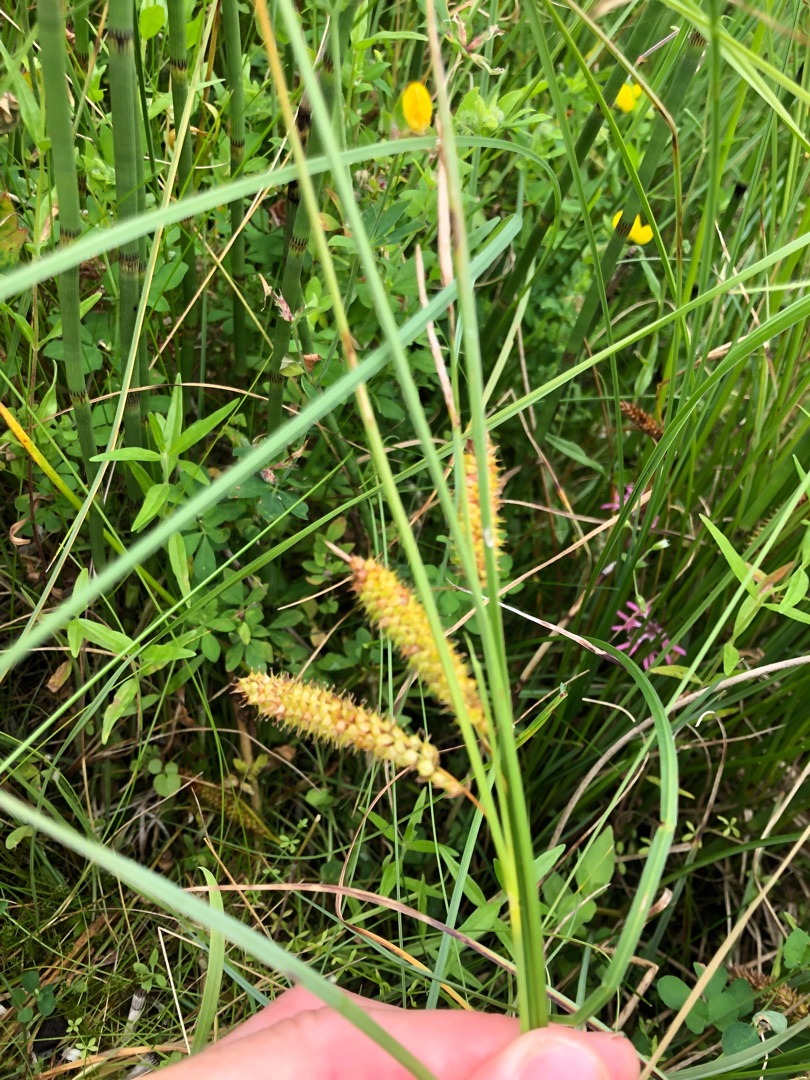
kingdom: Plantae
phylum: Tracheophyta
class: Liliopsida
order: Poales
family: Cyperaceae
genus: Carex
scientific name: Carex rostrata
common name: Næb-star
